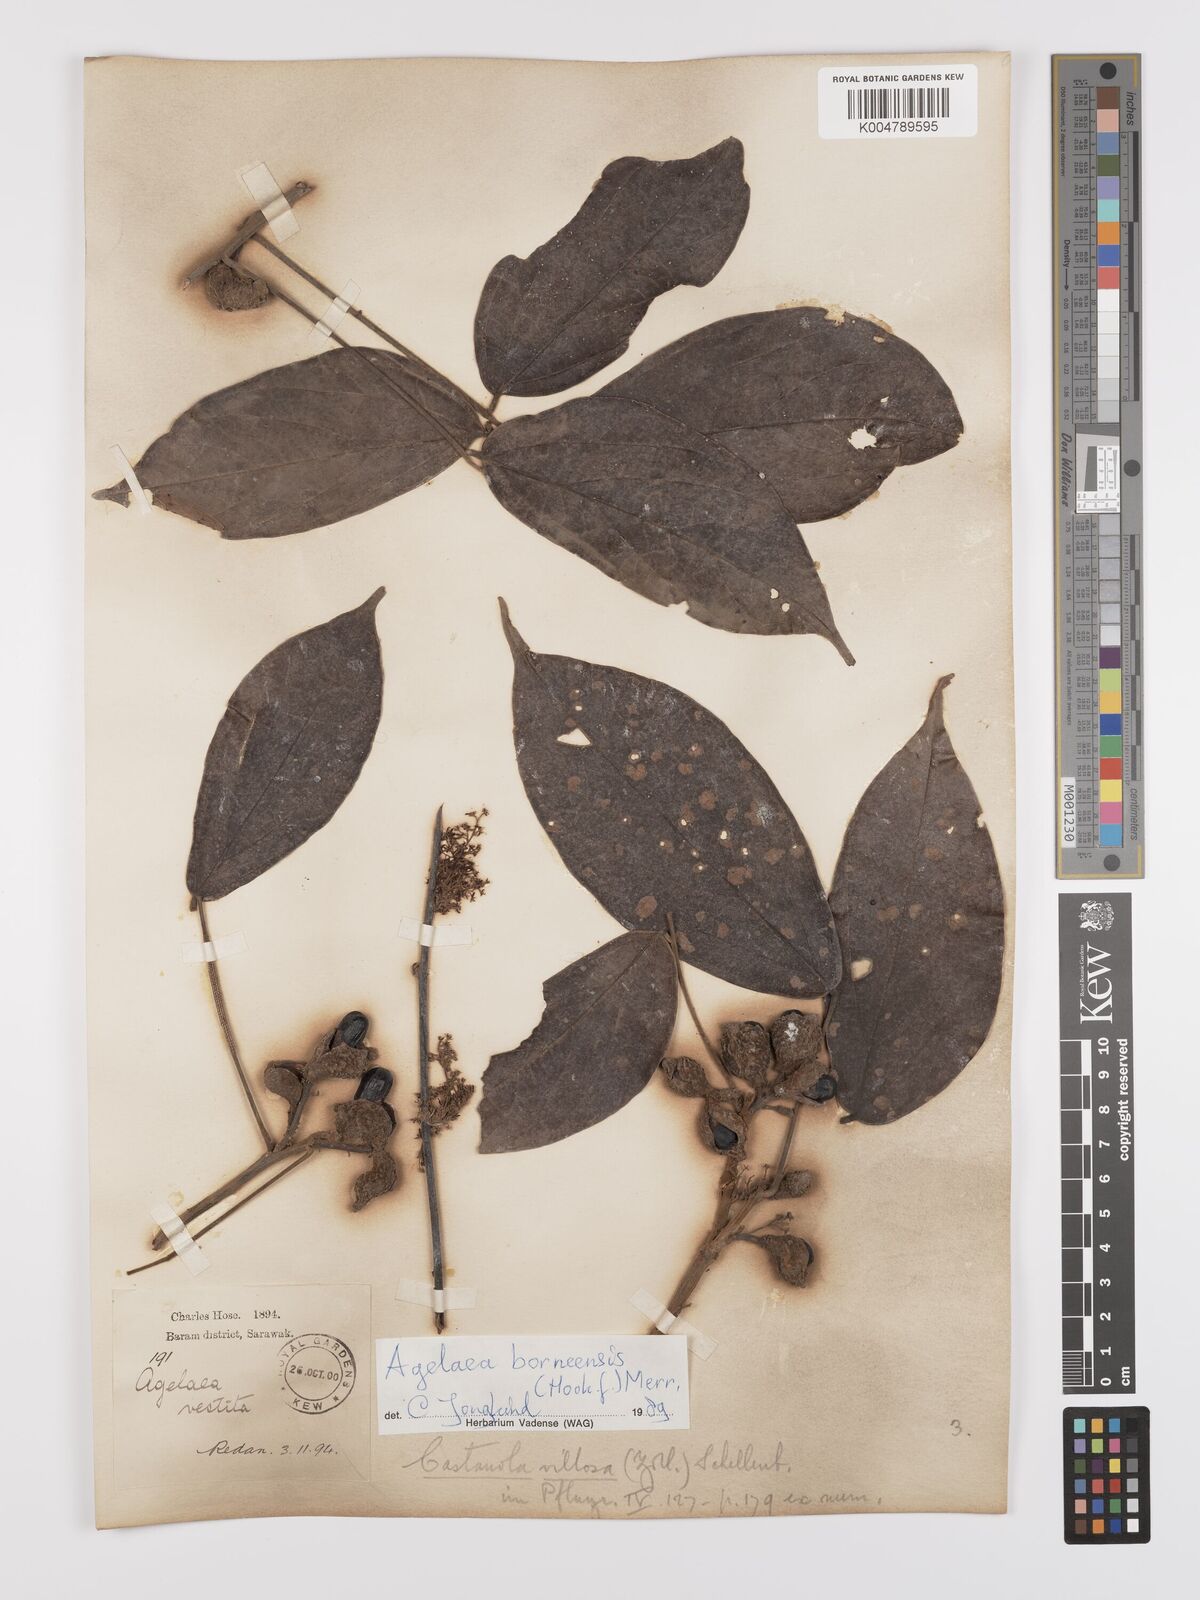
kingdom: Plantae
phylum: Tracheophyta
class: Magnoliopsida
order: Oxalidales
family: Connaraceae
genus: Agelaea
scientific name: Agelaea borneensis
